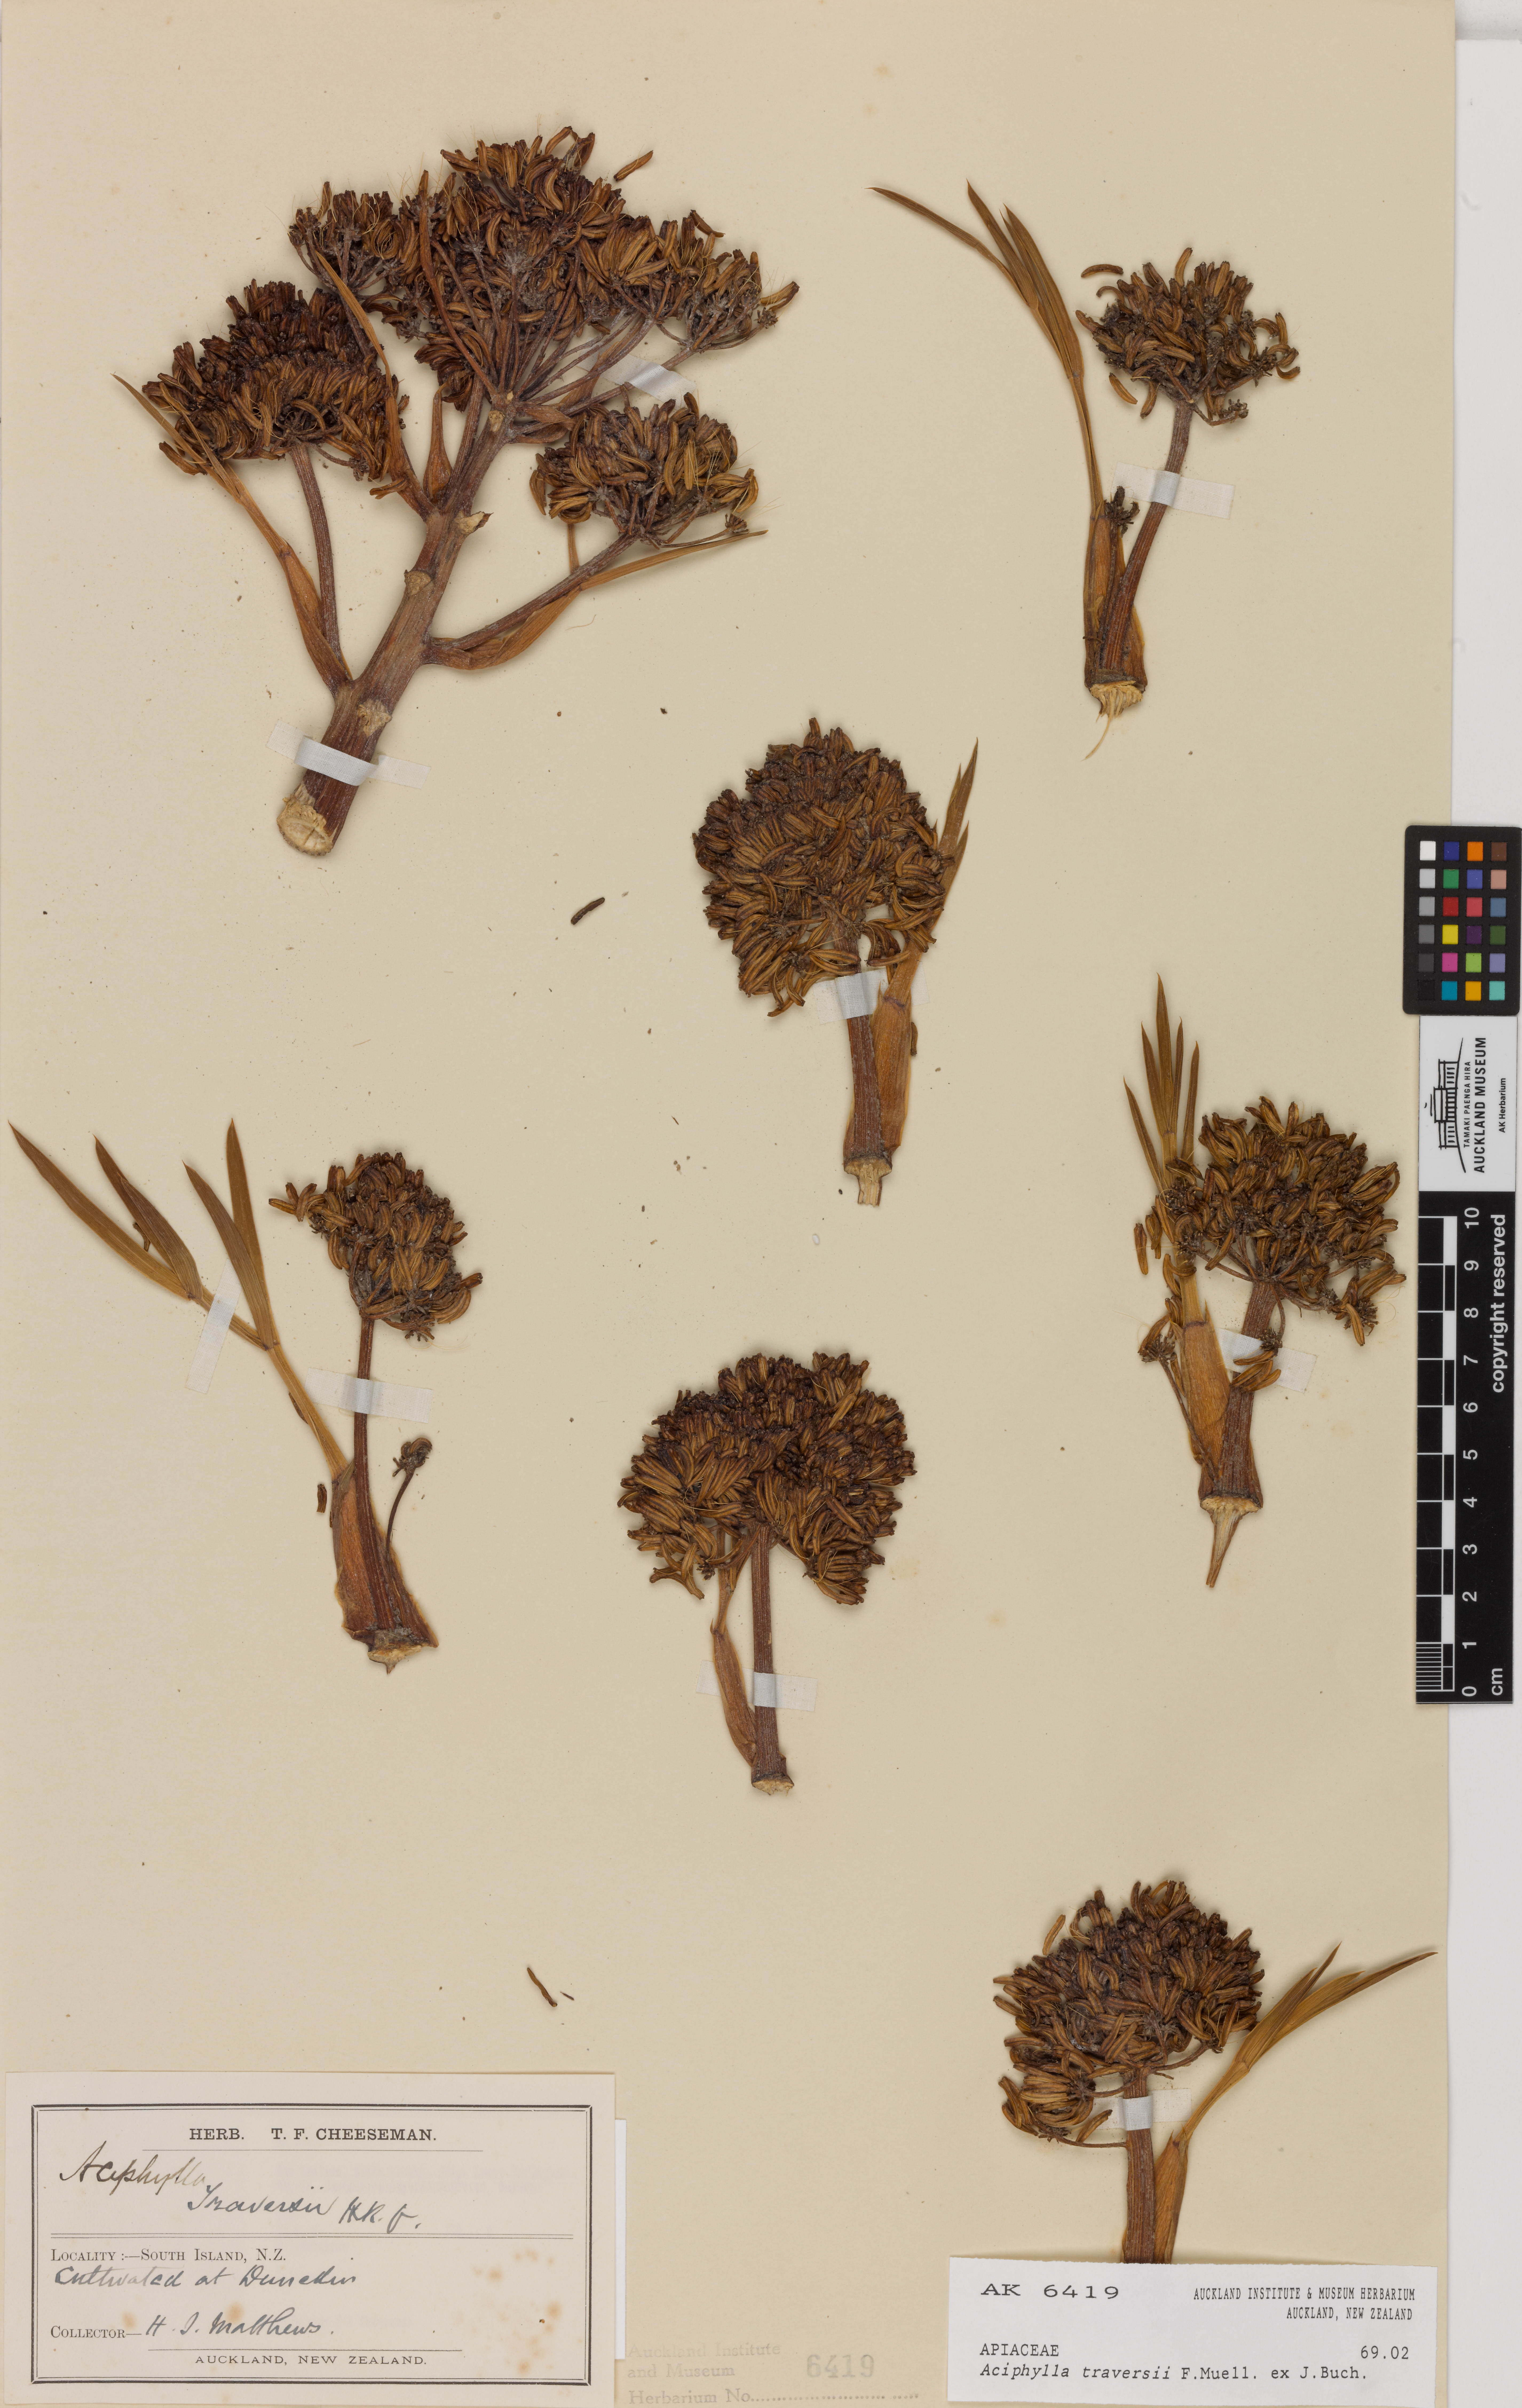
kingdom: Plantae
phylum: Tracheophyta
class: Magnoliopsida
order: Apiales
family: Apiaceae
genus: Aciphylla
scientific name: Aciphylla traversii
